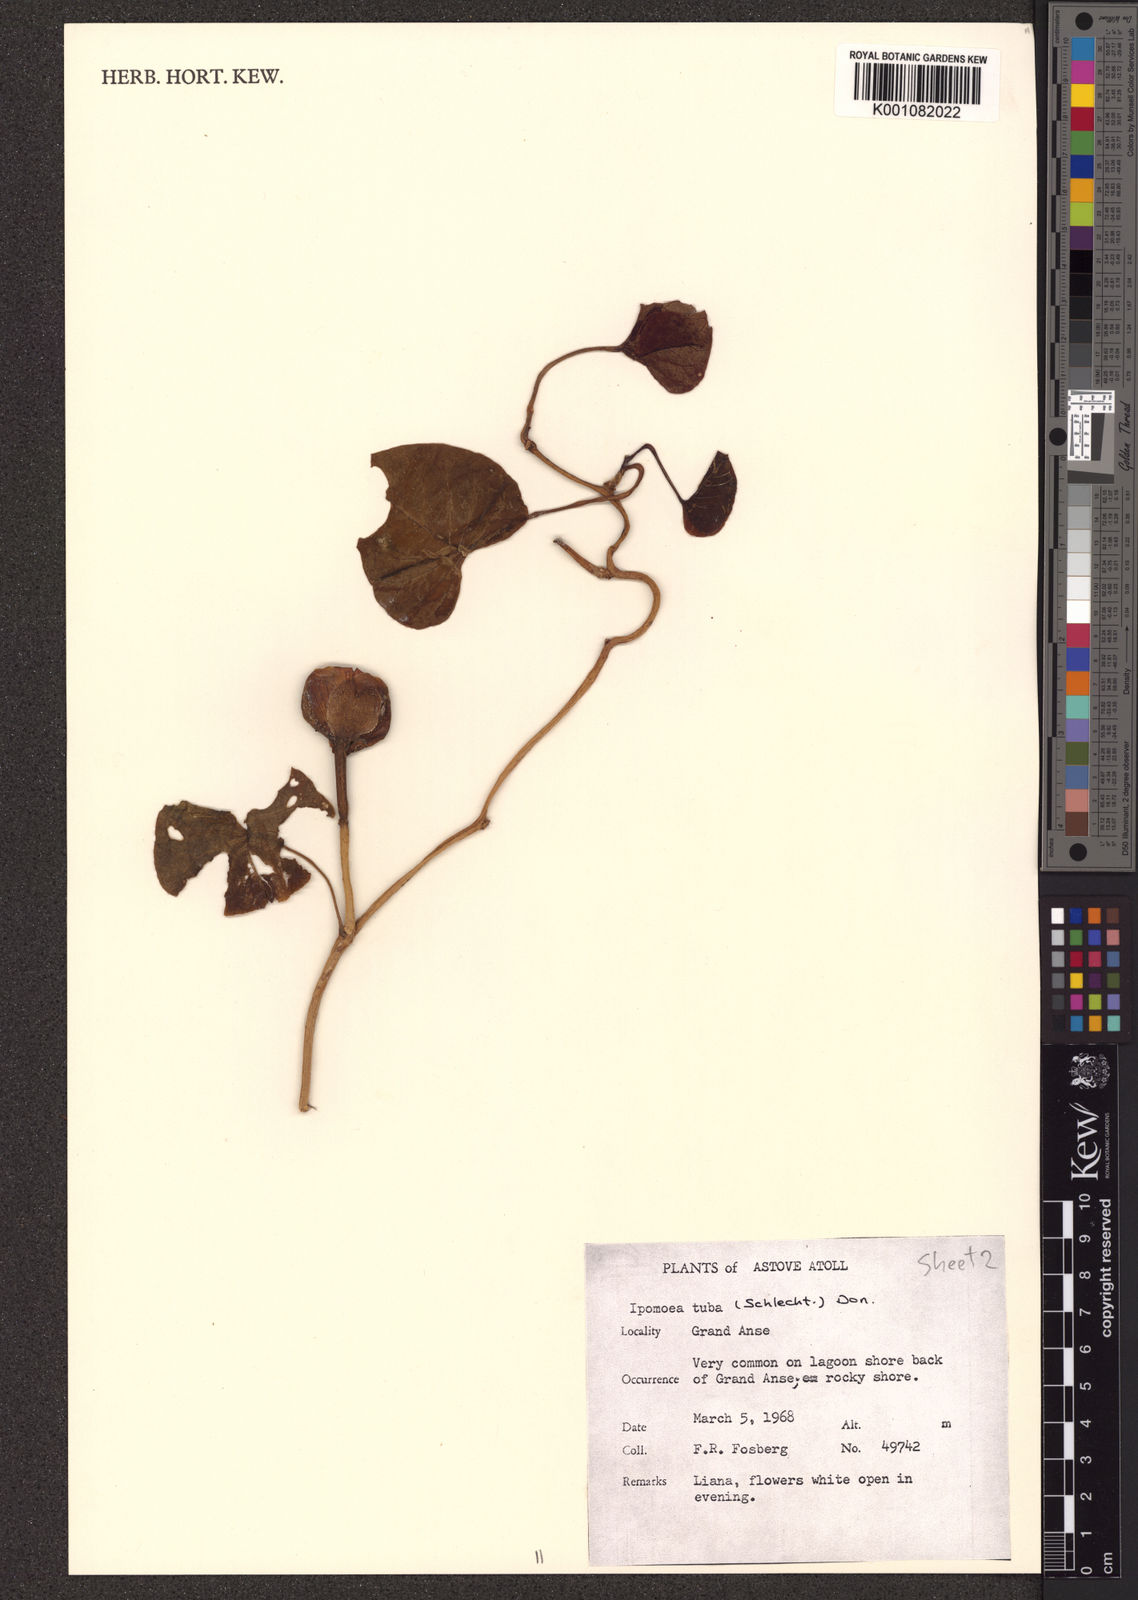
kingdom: Plantae
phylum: Tracheophyta
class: Magnoliopsida
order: Solanales
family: Convolvulaceae
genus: Ipomoea
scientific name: Ipomoea violacea
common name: Beach moonflower
